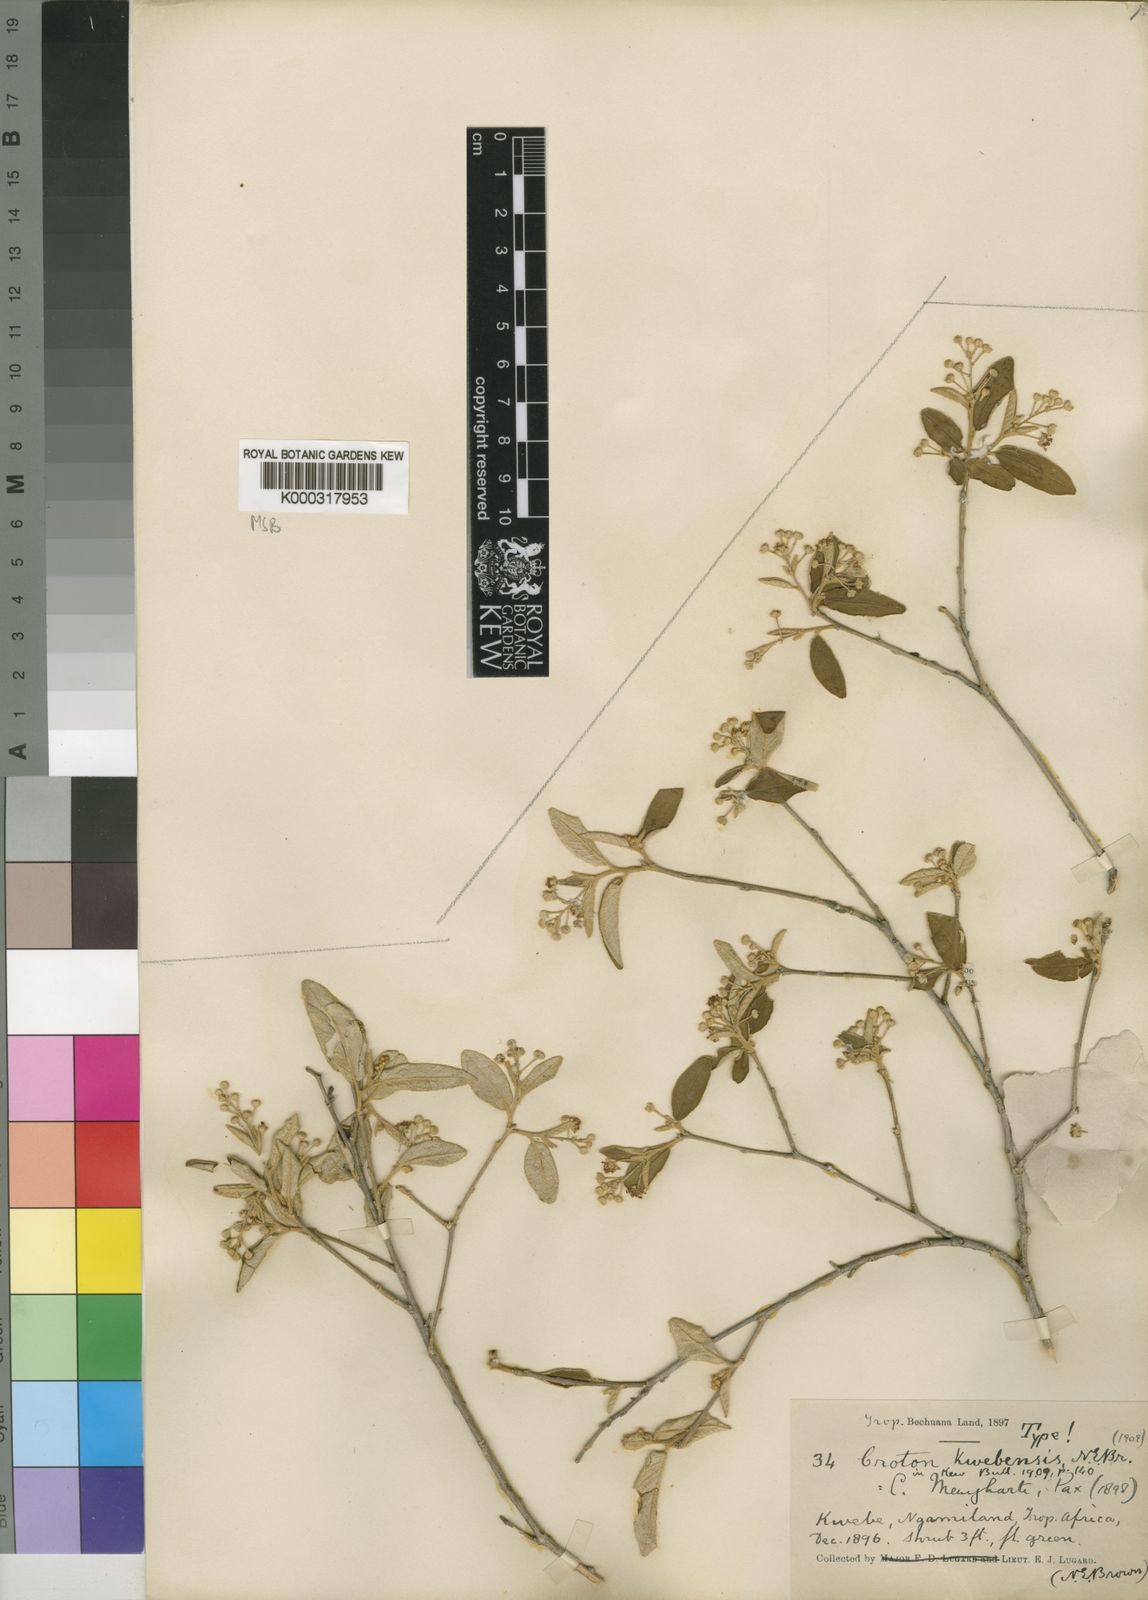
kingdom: Plantae
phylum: Tracheophyta
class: Magnoliopsida
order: Malpighiales
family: Euphorbiaceae
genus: Croton
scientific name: Croton menyharthii
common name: Rough-leaved croton
